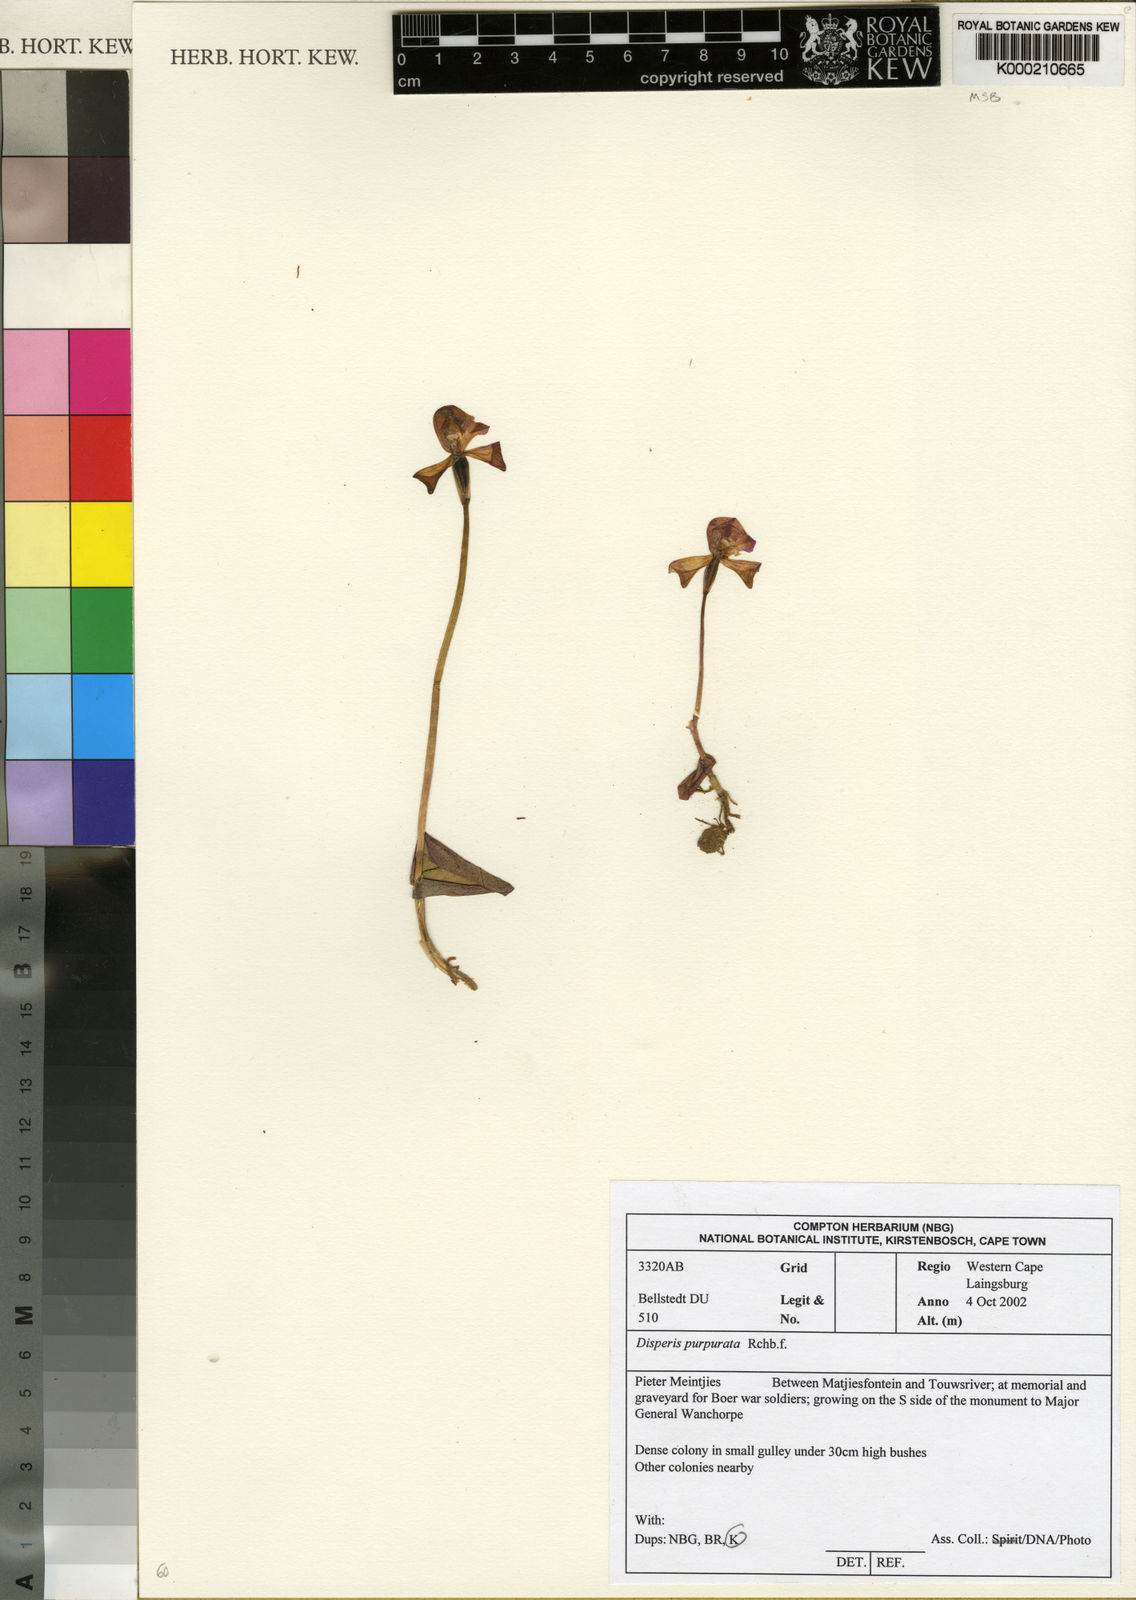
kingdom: Plantae
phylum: Tracheophyta
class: Liliopsida
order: Asparagales
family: Orchidaceae
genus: Disperis
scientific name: Disperis purpurata
